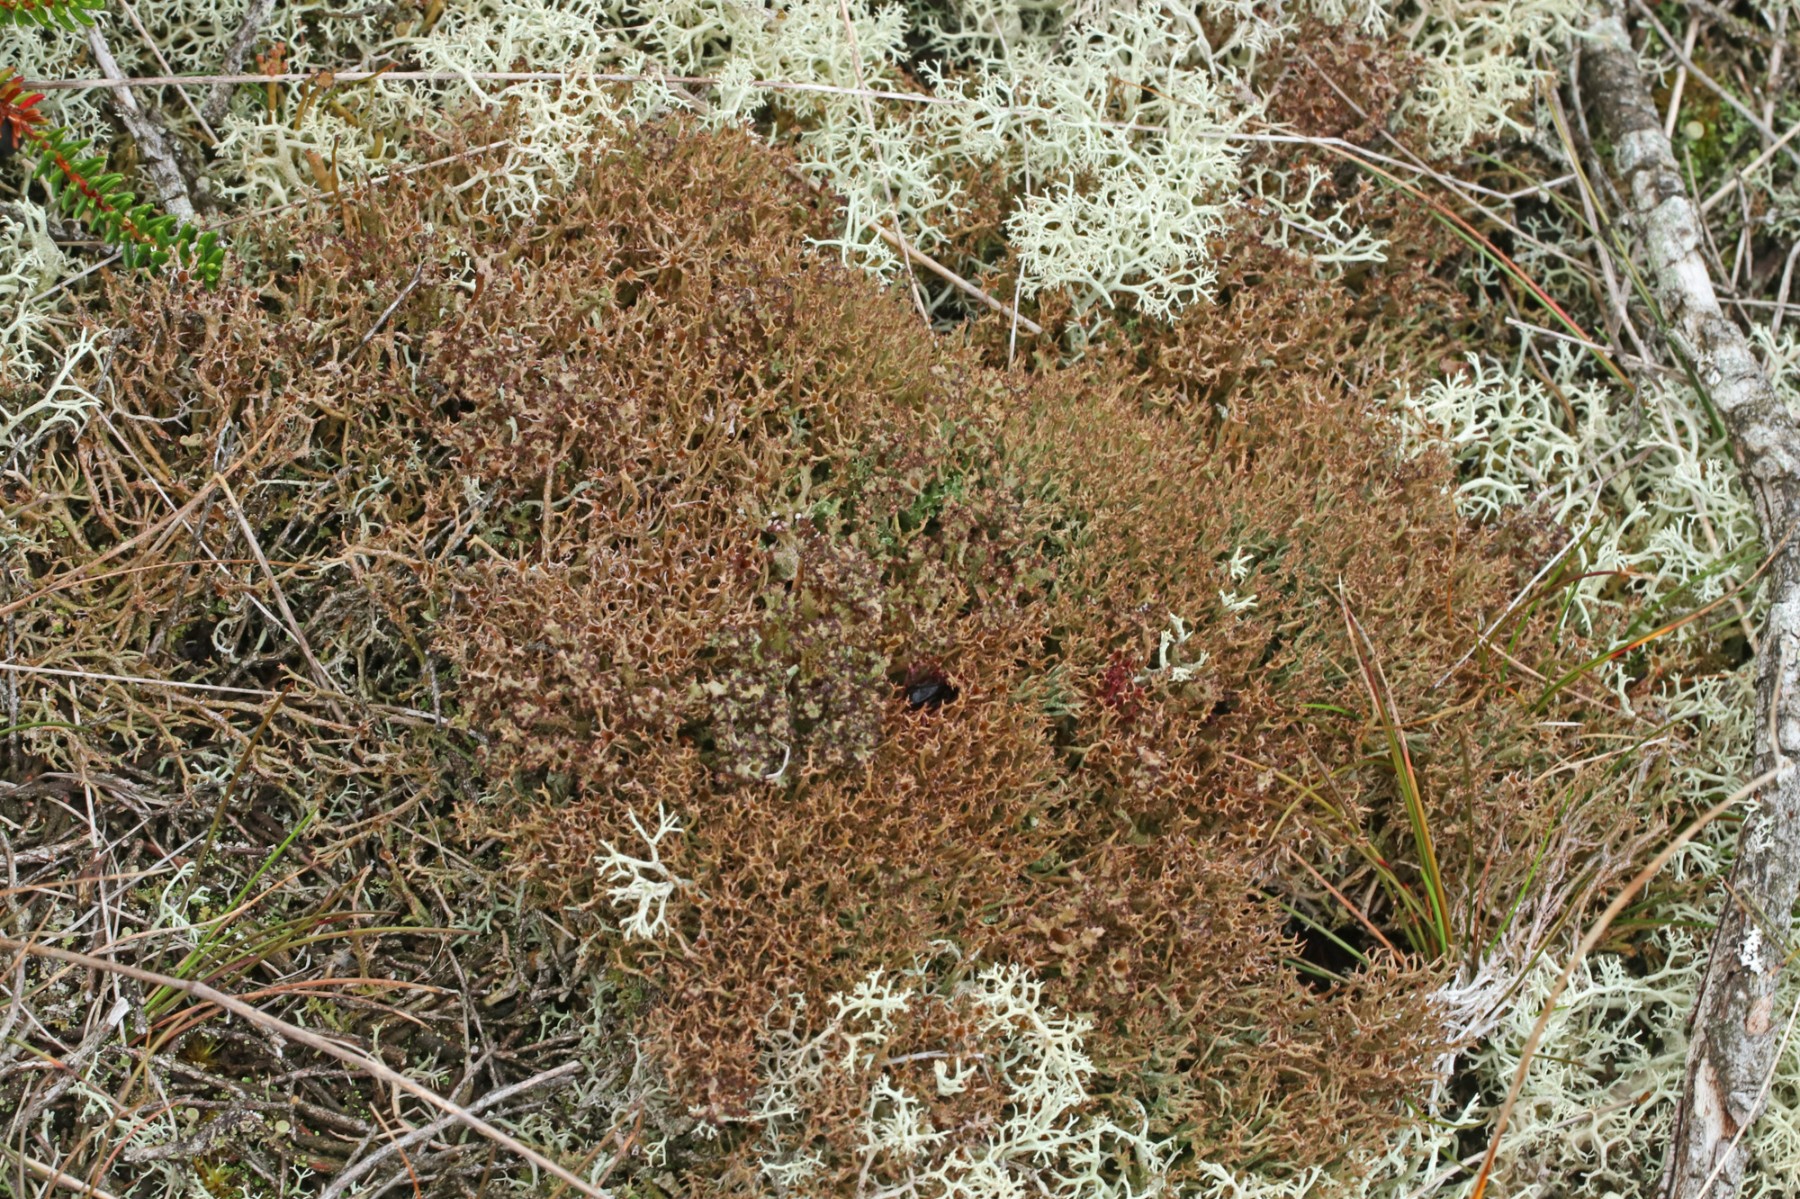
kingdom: Fungi
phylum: Ascomycota
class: Lecanoromycetes
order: Lecanorales
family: Cladoniaceae
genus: Cladonia
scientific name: Cladonia crispata
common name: takket bægerlav
